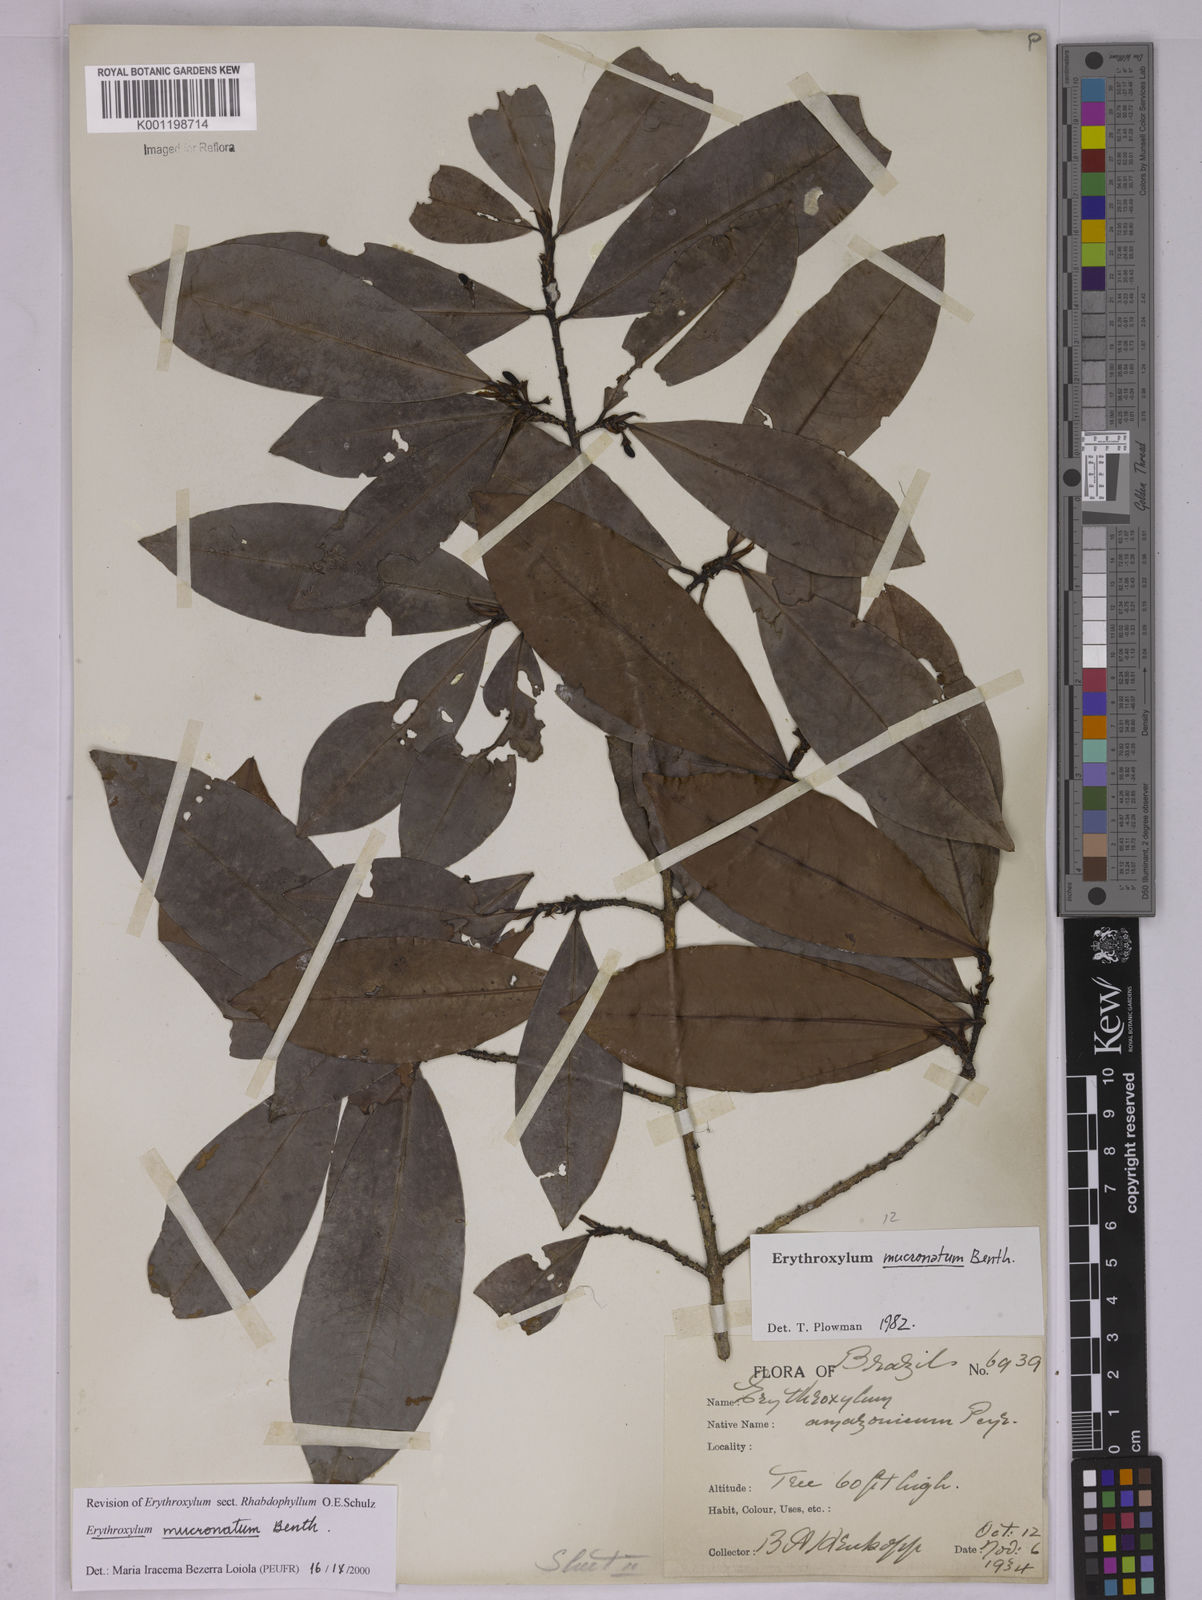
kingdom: Plantae
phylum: Tracheophyta
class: Magnoliopsida
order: Malpighiales
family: Erythroxylaceae
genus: Erythroxylum
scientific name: Erythroxylum mucronatum
